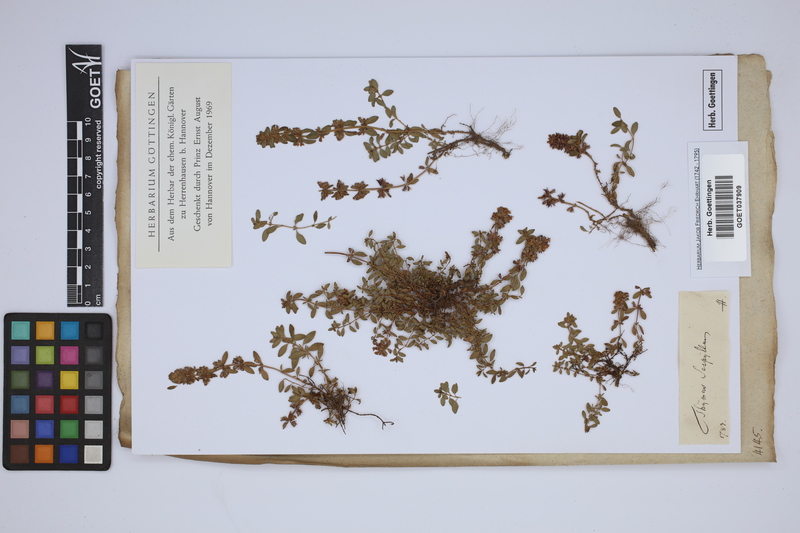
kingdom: Plantae
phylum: Tracheophyta
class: Magnoliopsida
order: Lamiales
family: Lamiaceae
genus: Thymus
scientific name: Thymus serpyllum
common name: Breckland thyme
